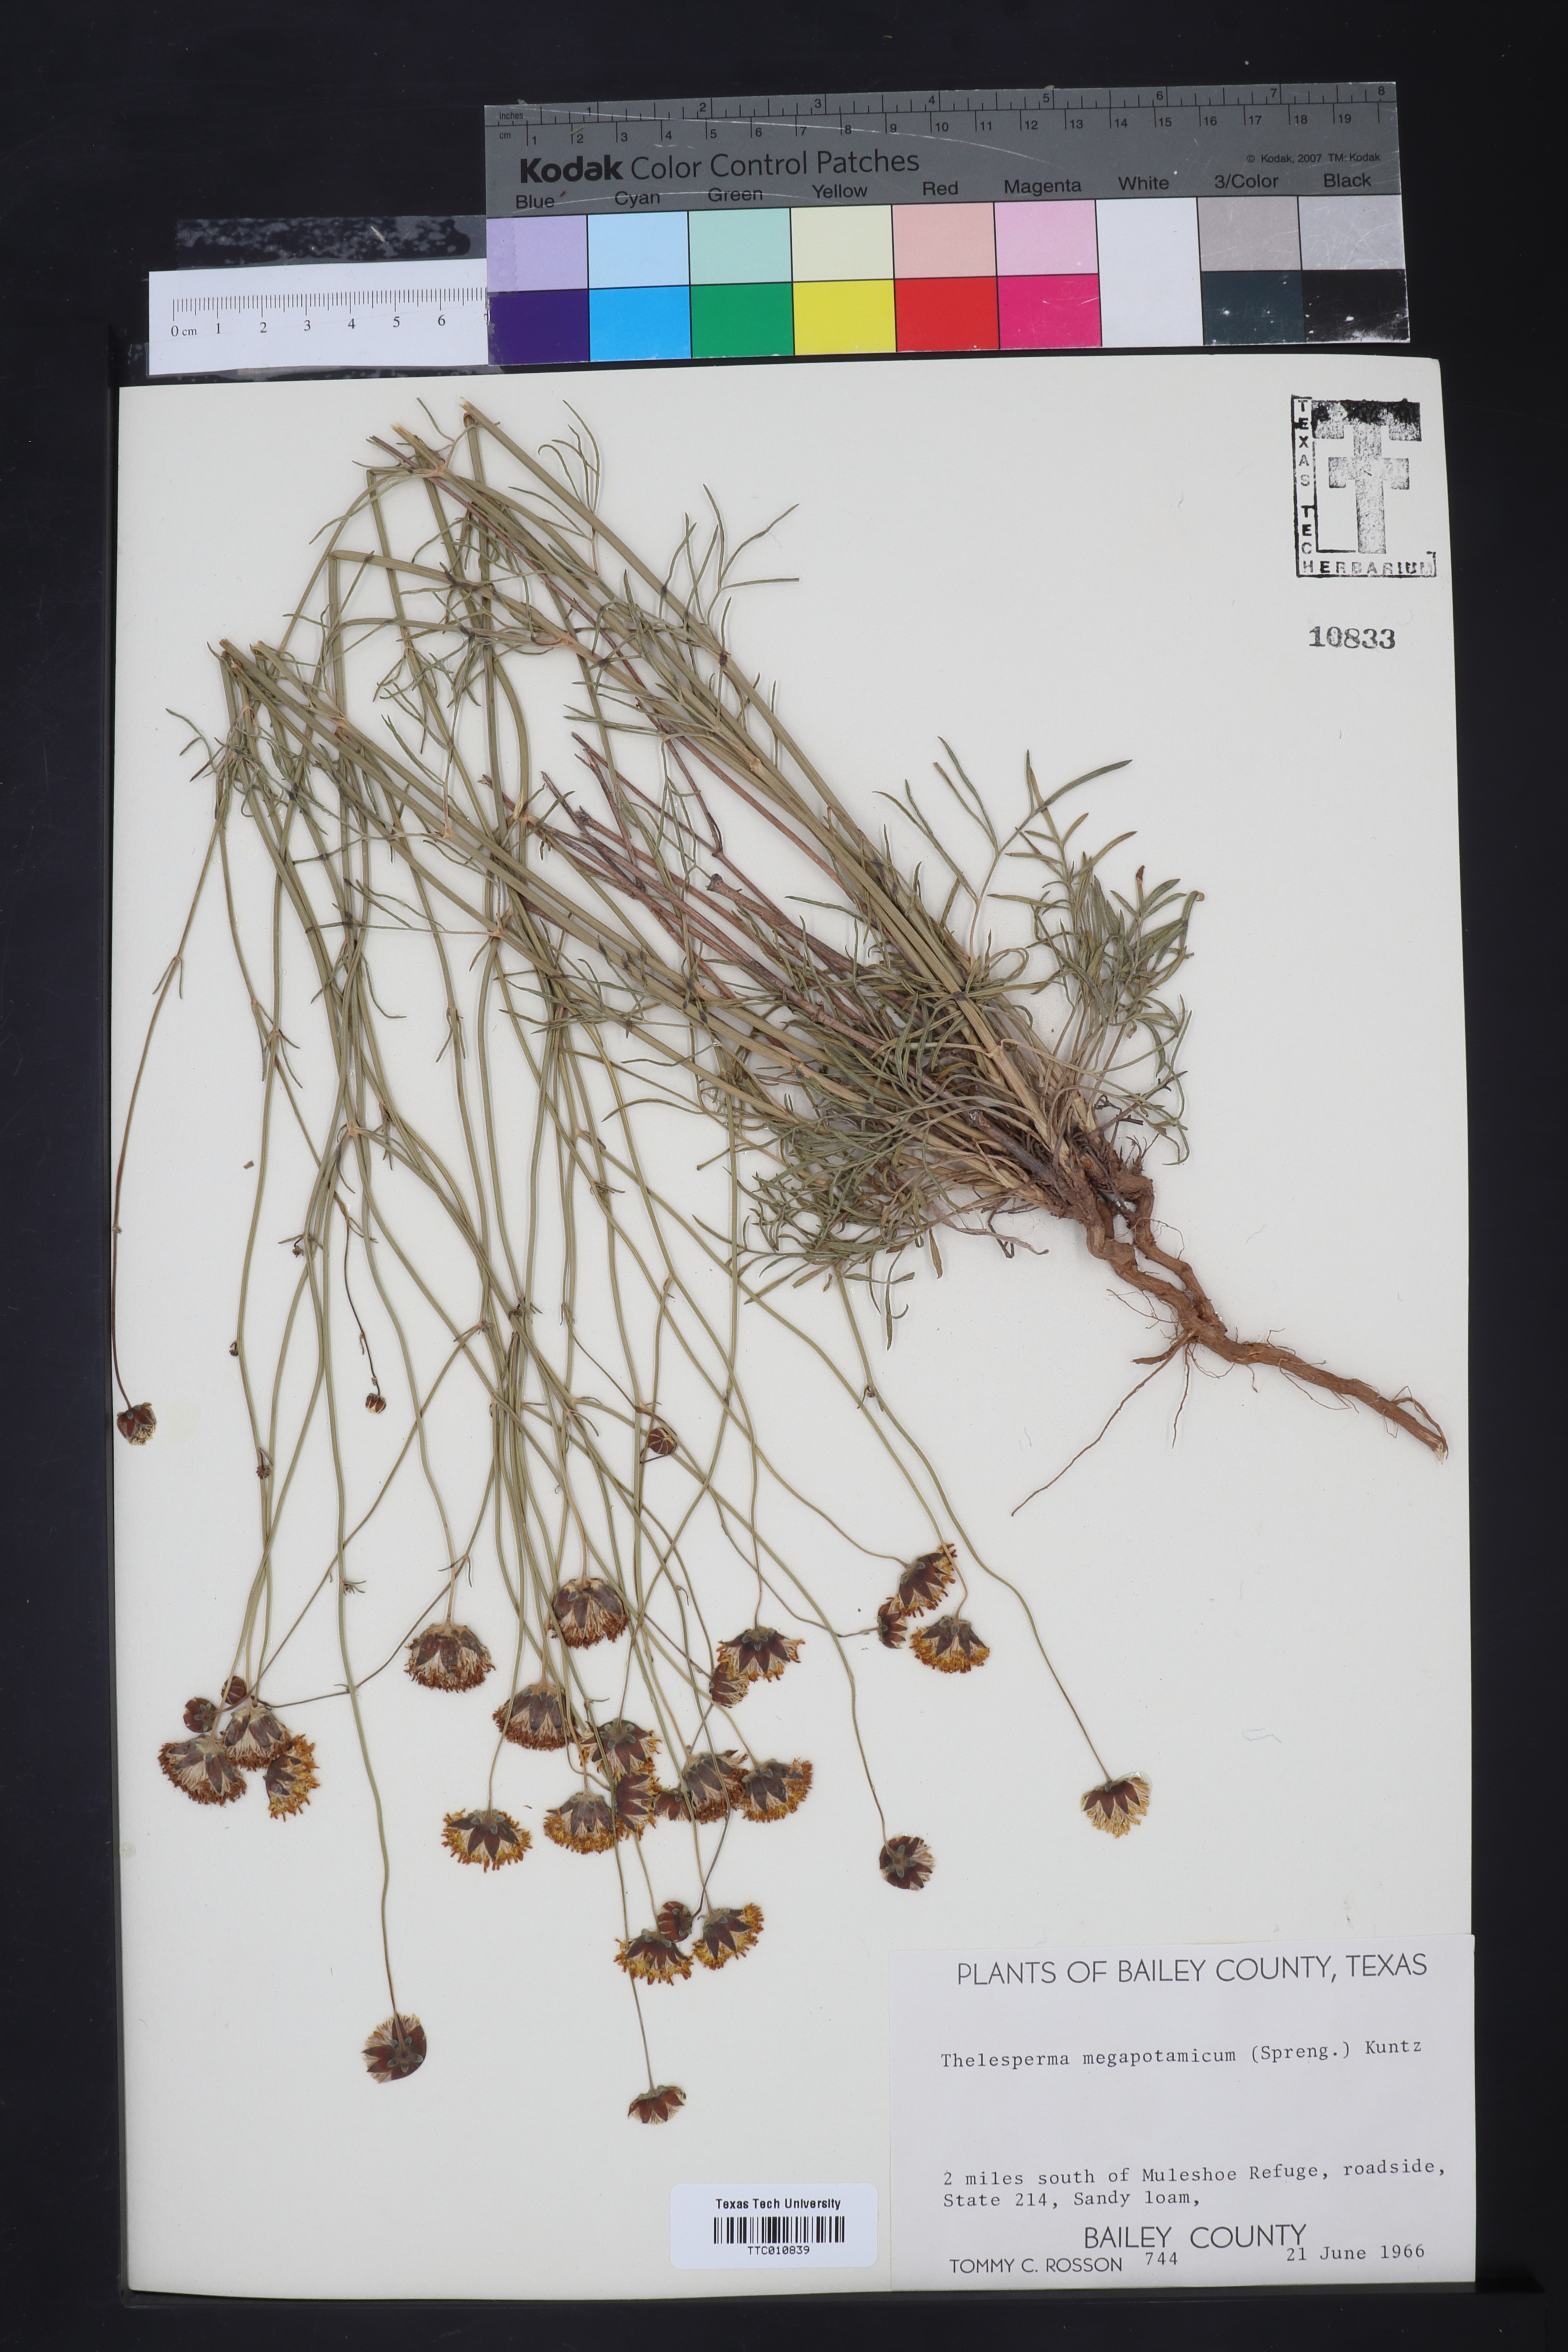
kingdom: Plantae
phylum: Tracheophyta
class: Magnoliopsida
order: Asterales
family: Asteraceae
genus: Thelesperma
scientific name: Thelesperma megapotamicum
